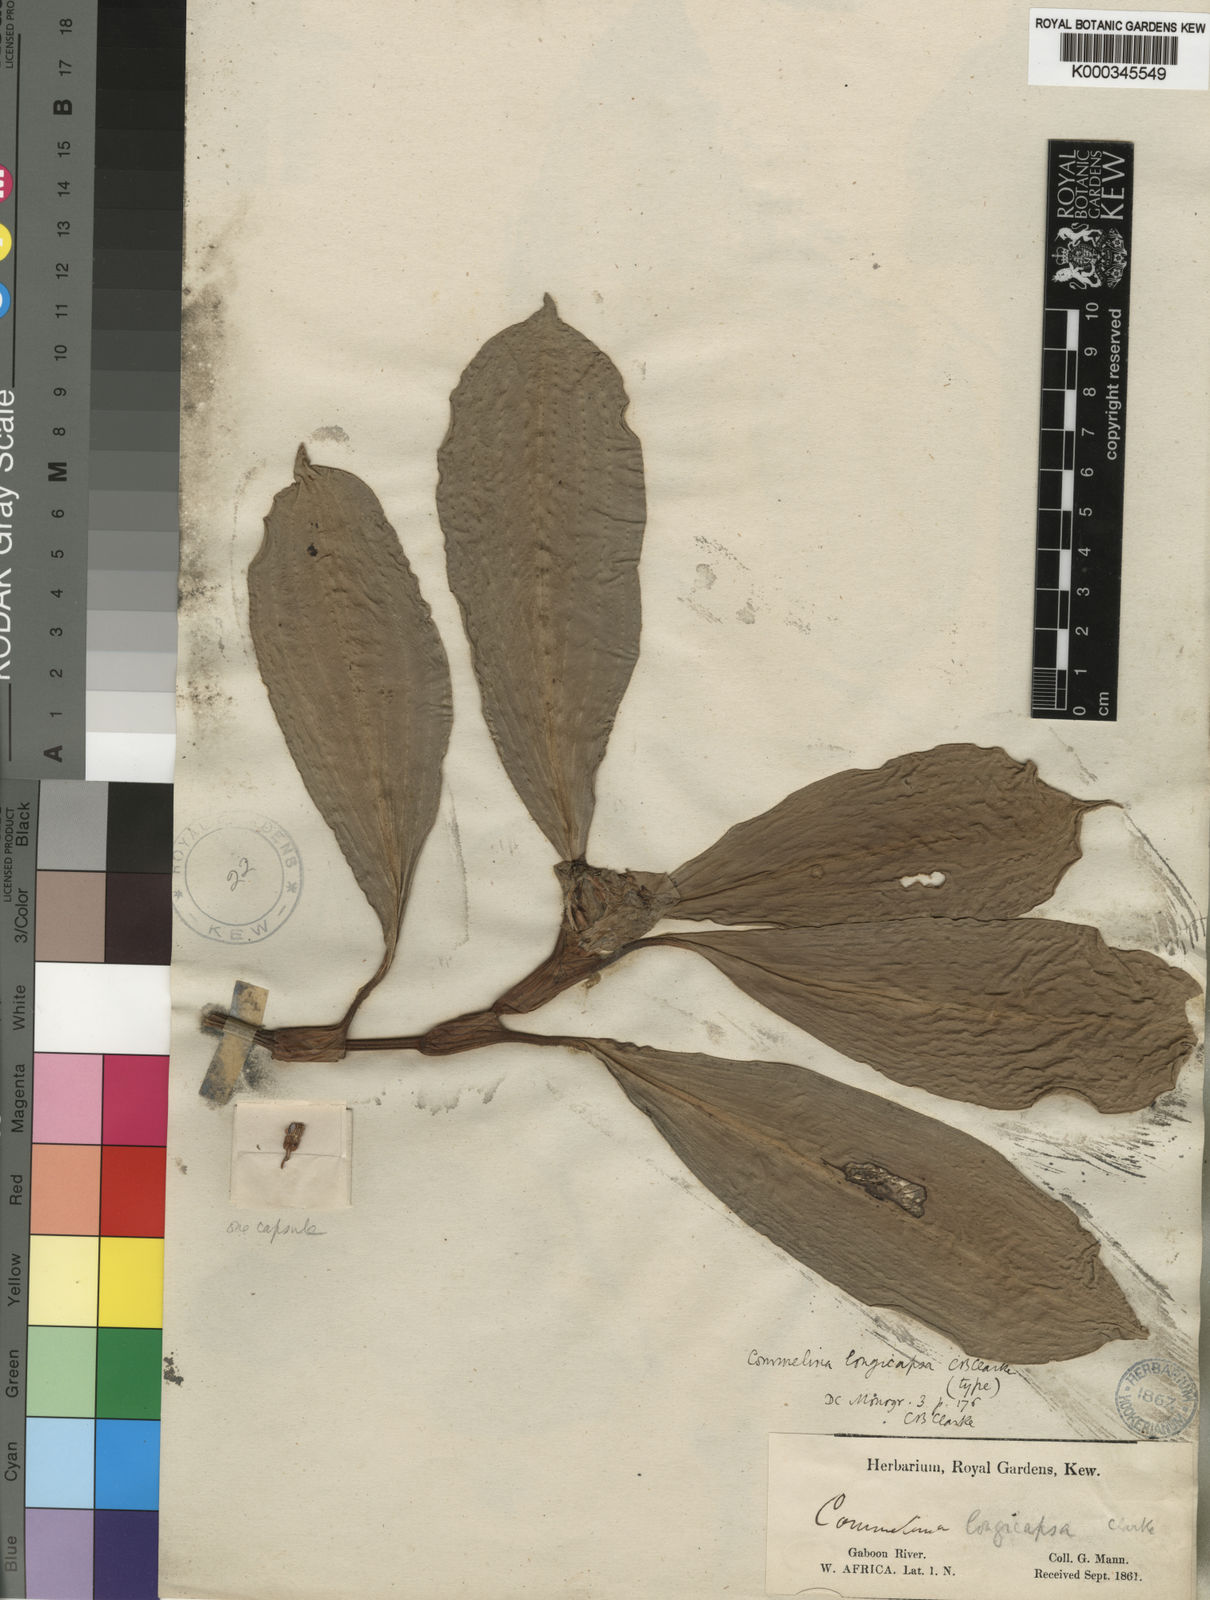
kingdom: Plantae
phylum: Tracheophyta
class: Liliopsida
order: Commelinales
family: Commelinaceae
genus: Commelina
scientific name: Commelina longicapsa
